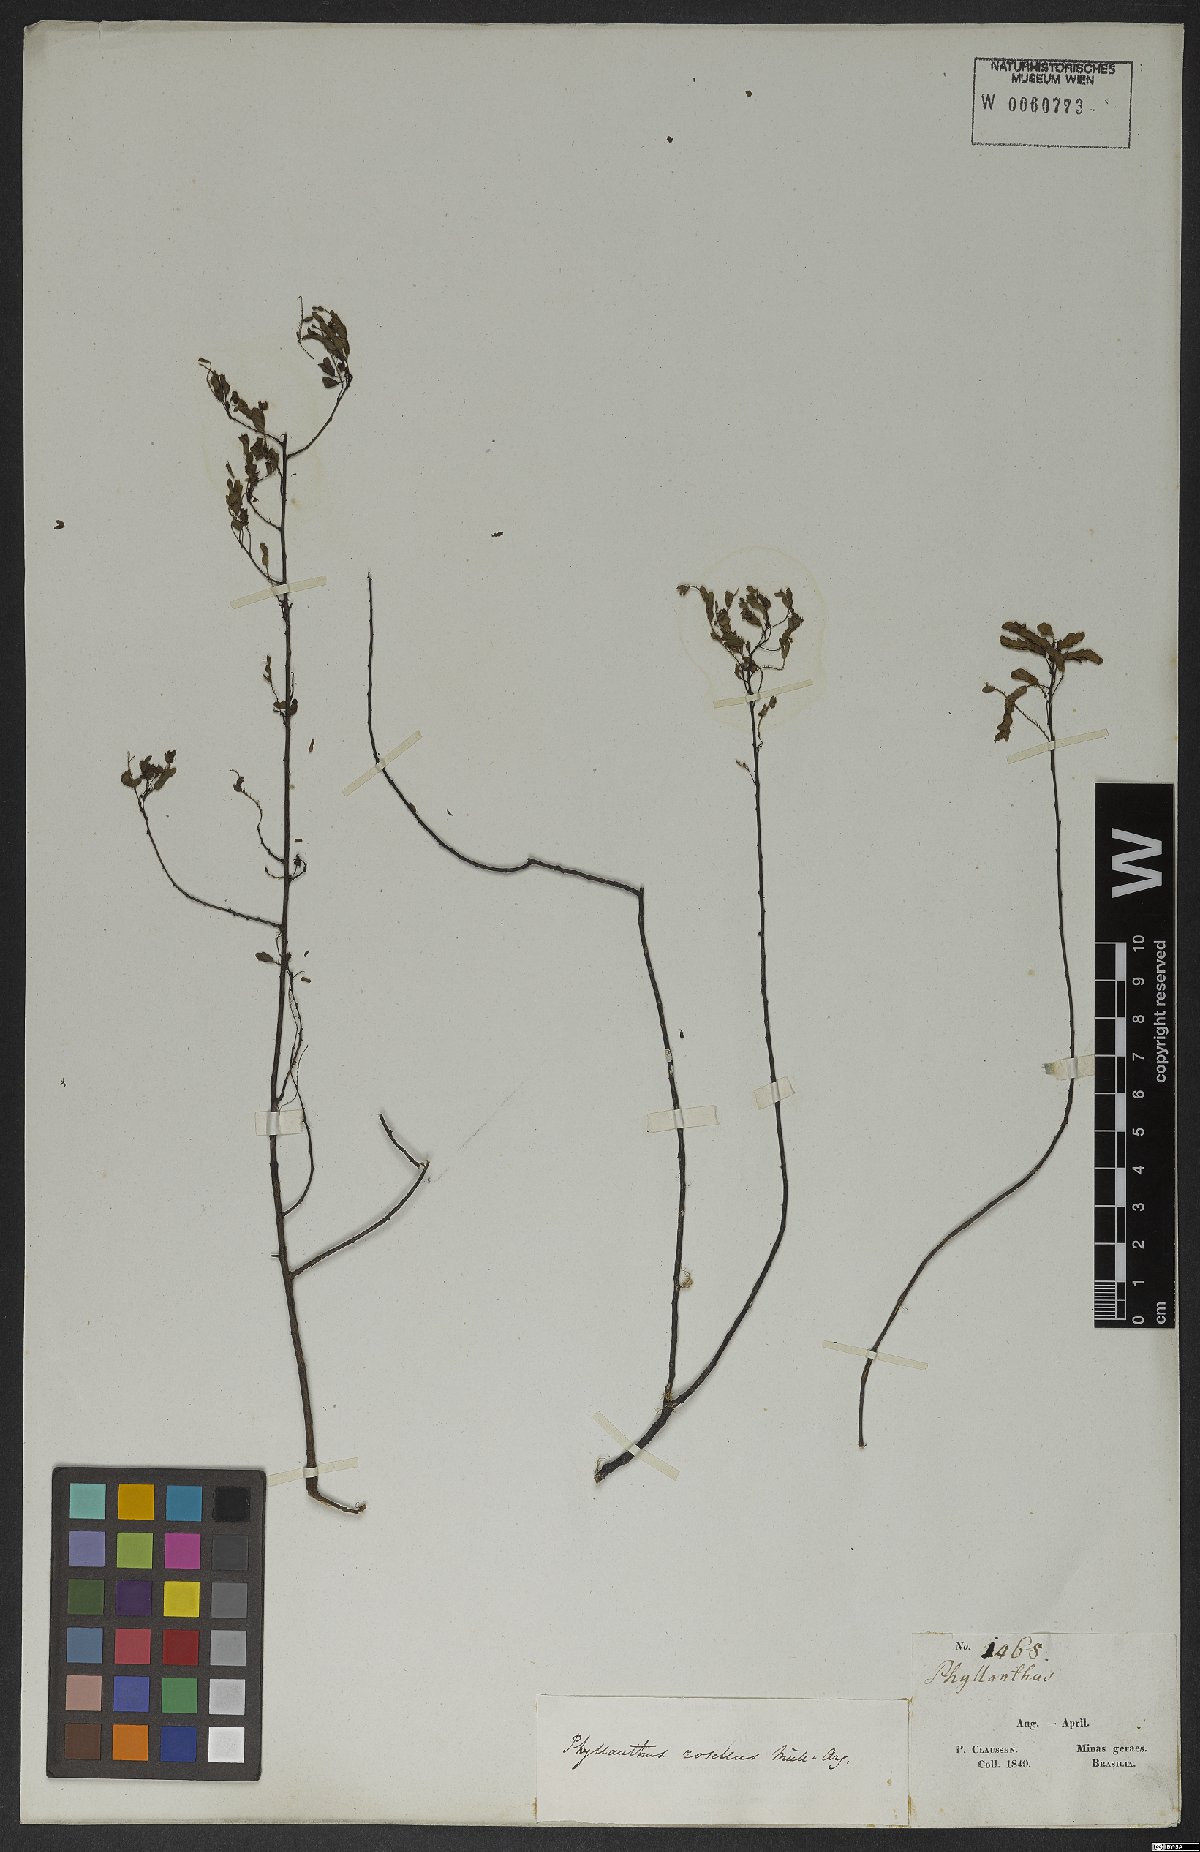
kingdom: Plantae
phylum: Tracheophyta
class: Magnoliopsida
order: Malpighiales
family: Phyllanthaceae
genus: Phyllanthus
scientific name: Phyllanthus niruri
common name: Niruri
